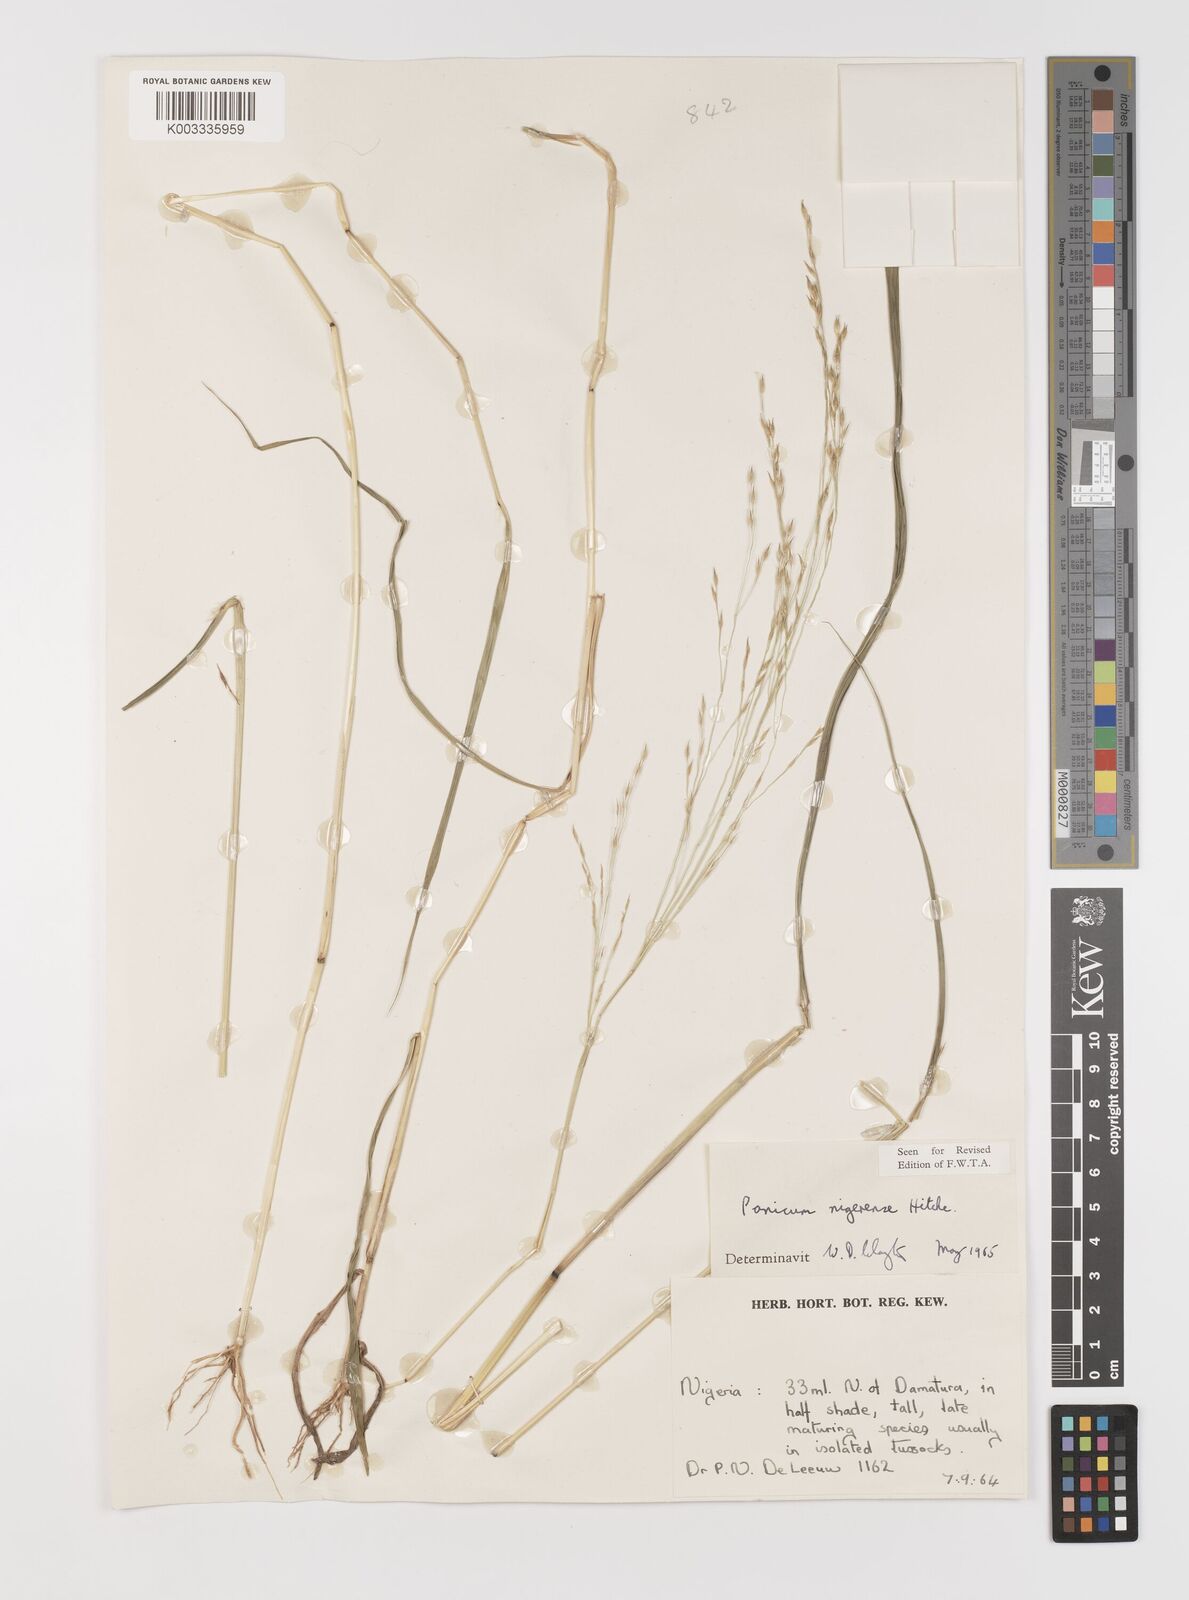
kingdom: Plantae
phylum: Tracheophyta
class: Liliopsida
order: Poales
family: Poaceae
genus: Panicum
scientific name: Panicum nigerense
